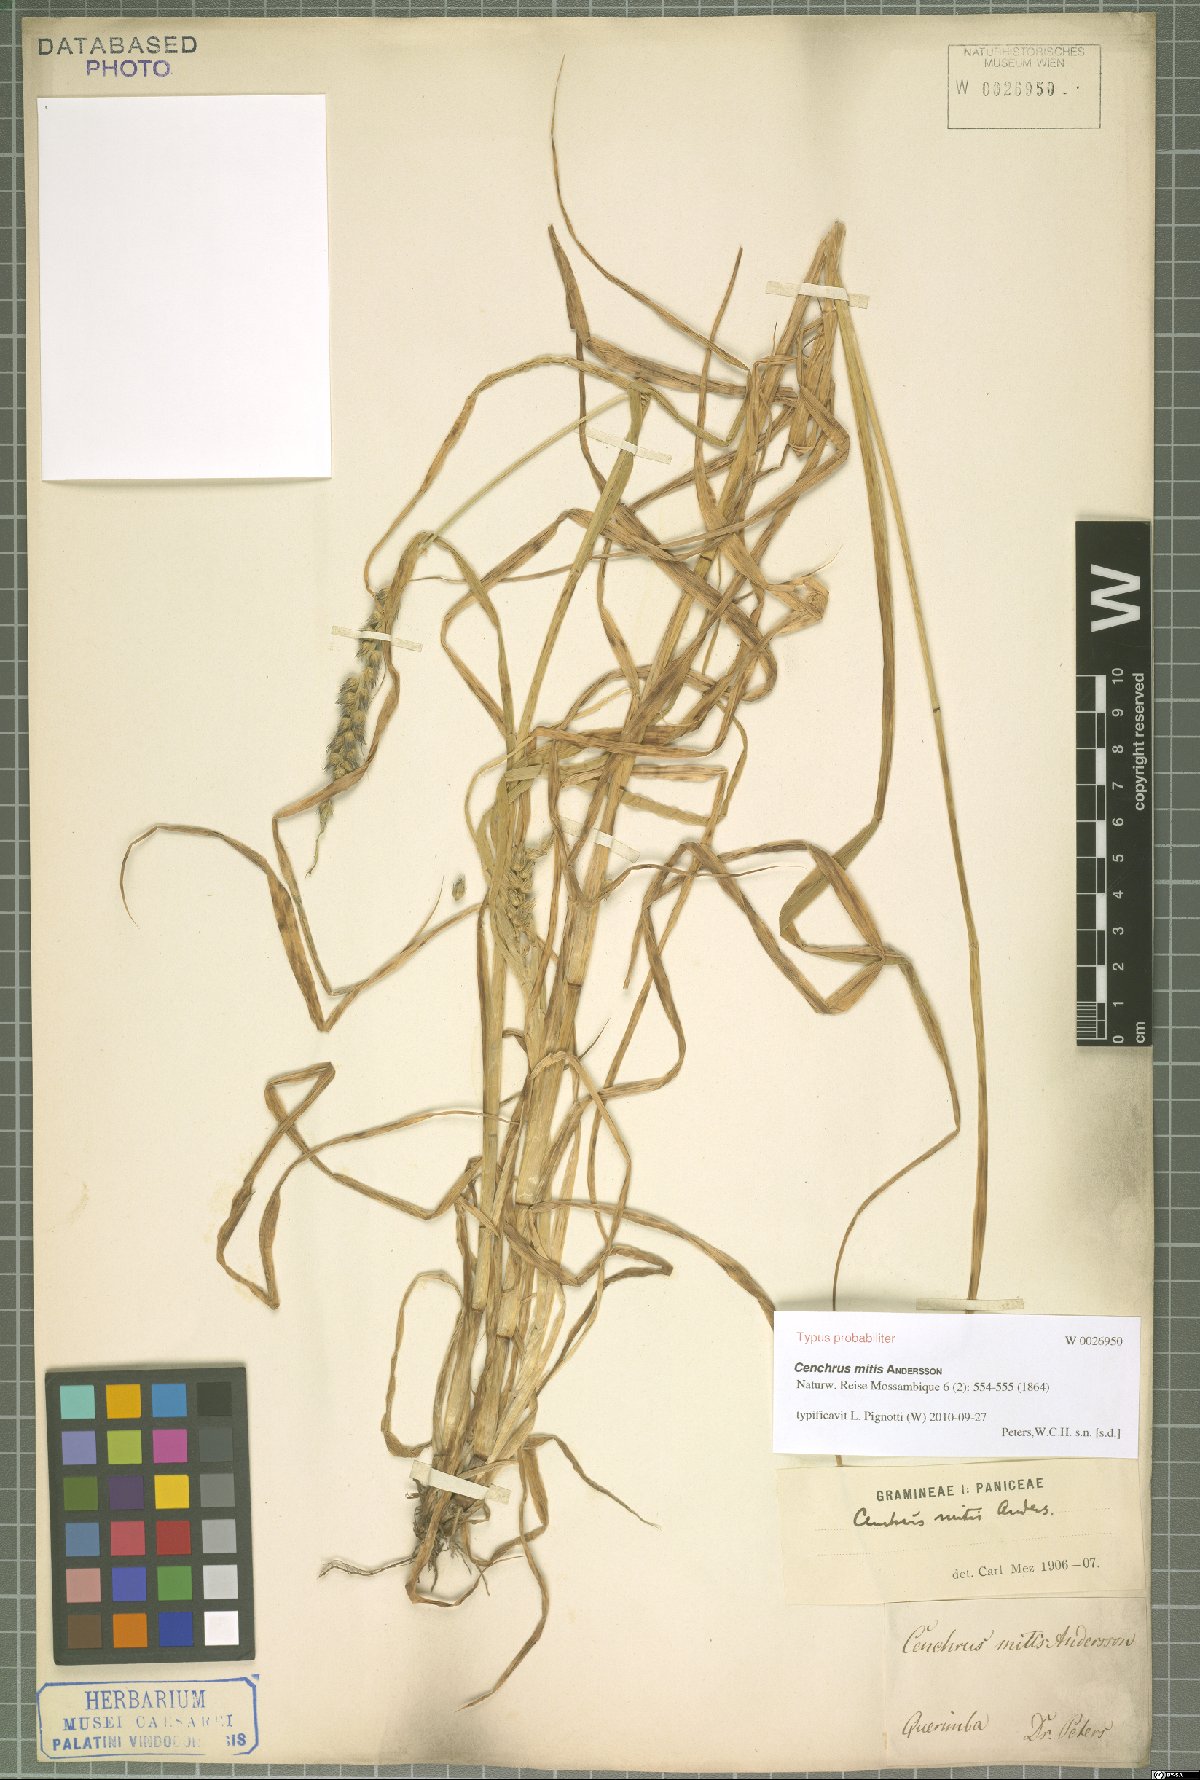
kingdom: Plantae
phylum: Tracheophyta
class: Liliopsida
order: Poales
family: Poaceae
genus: Cenchrus
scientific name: Cenchrus mitis
